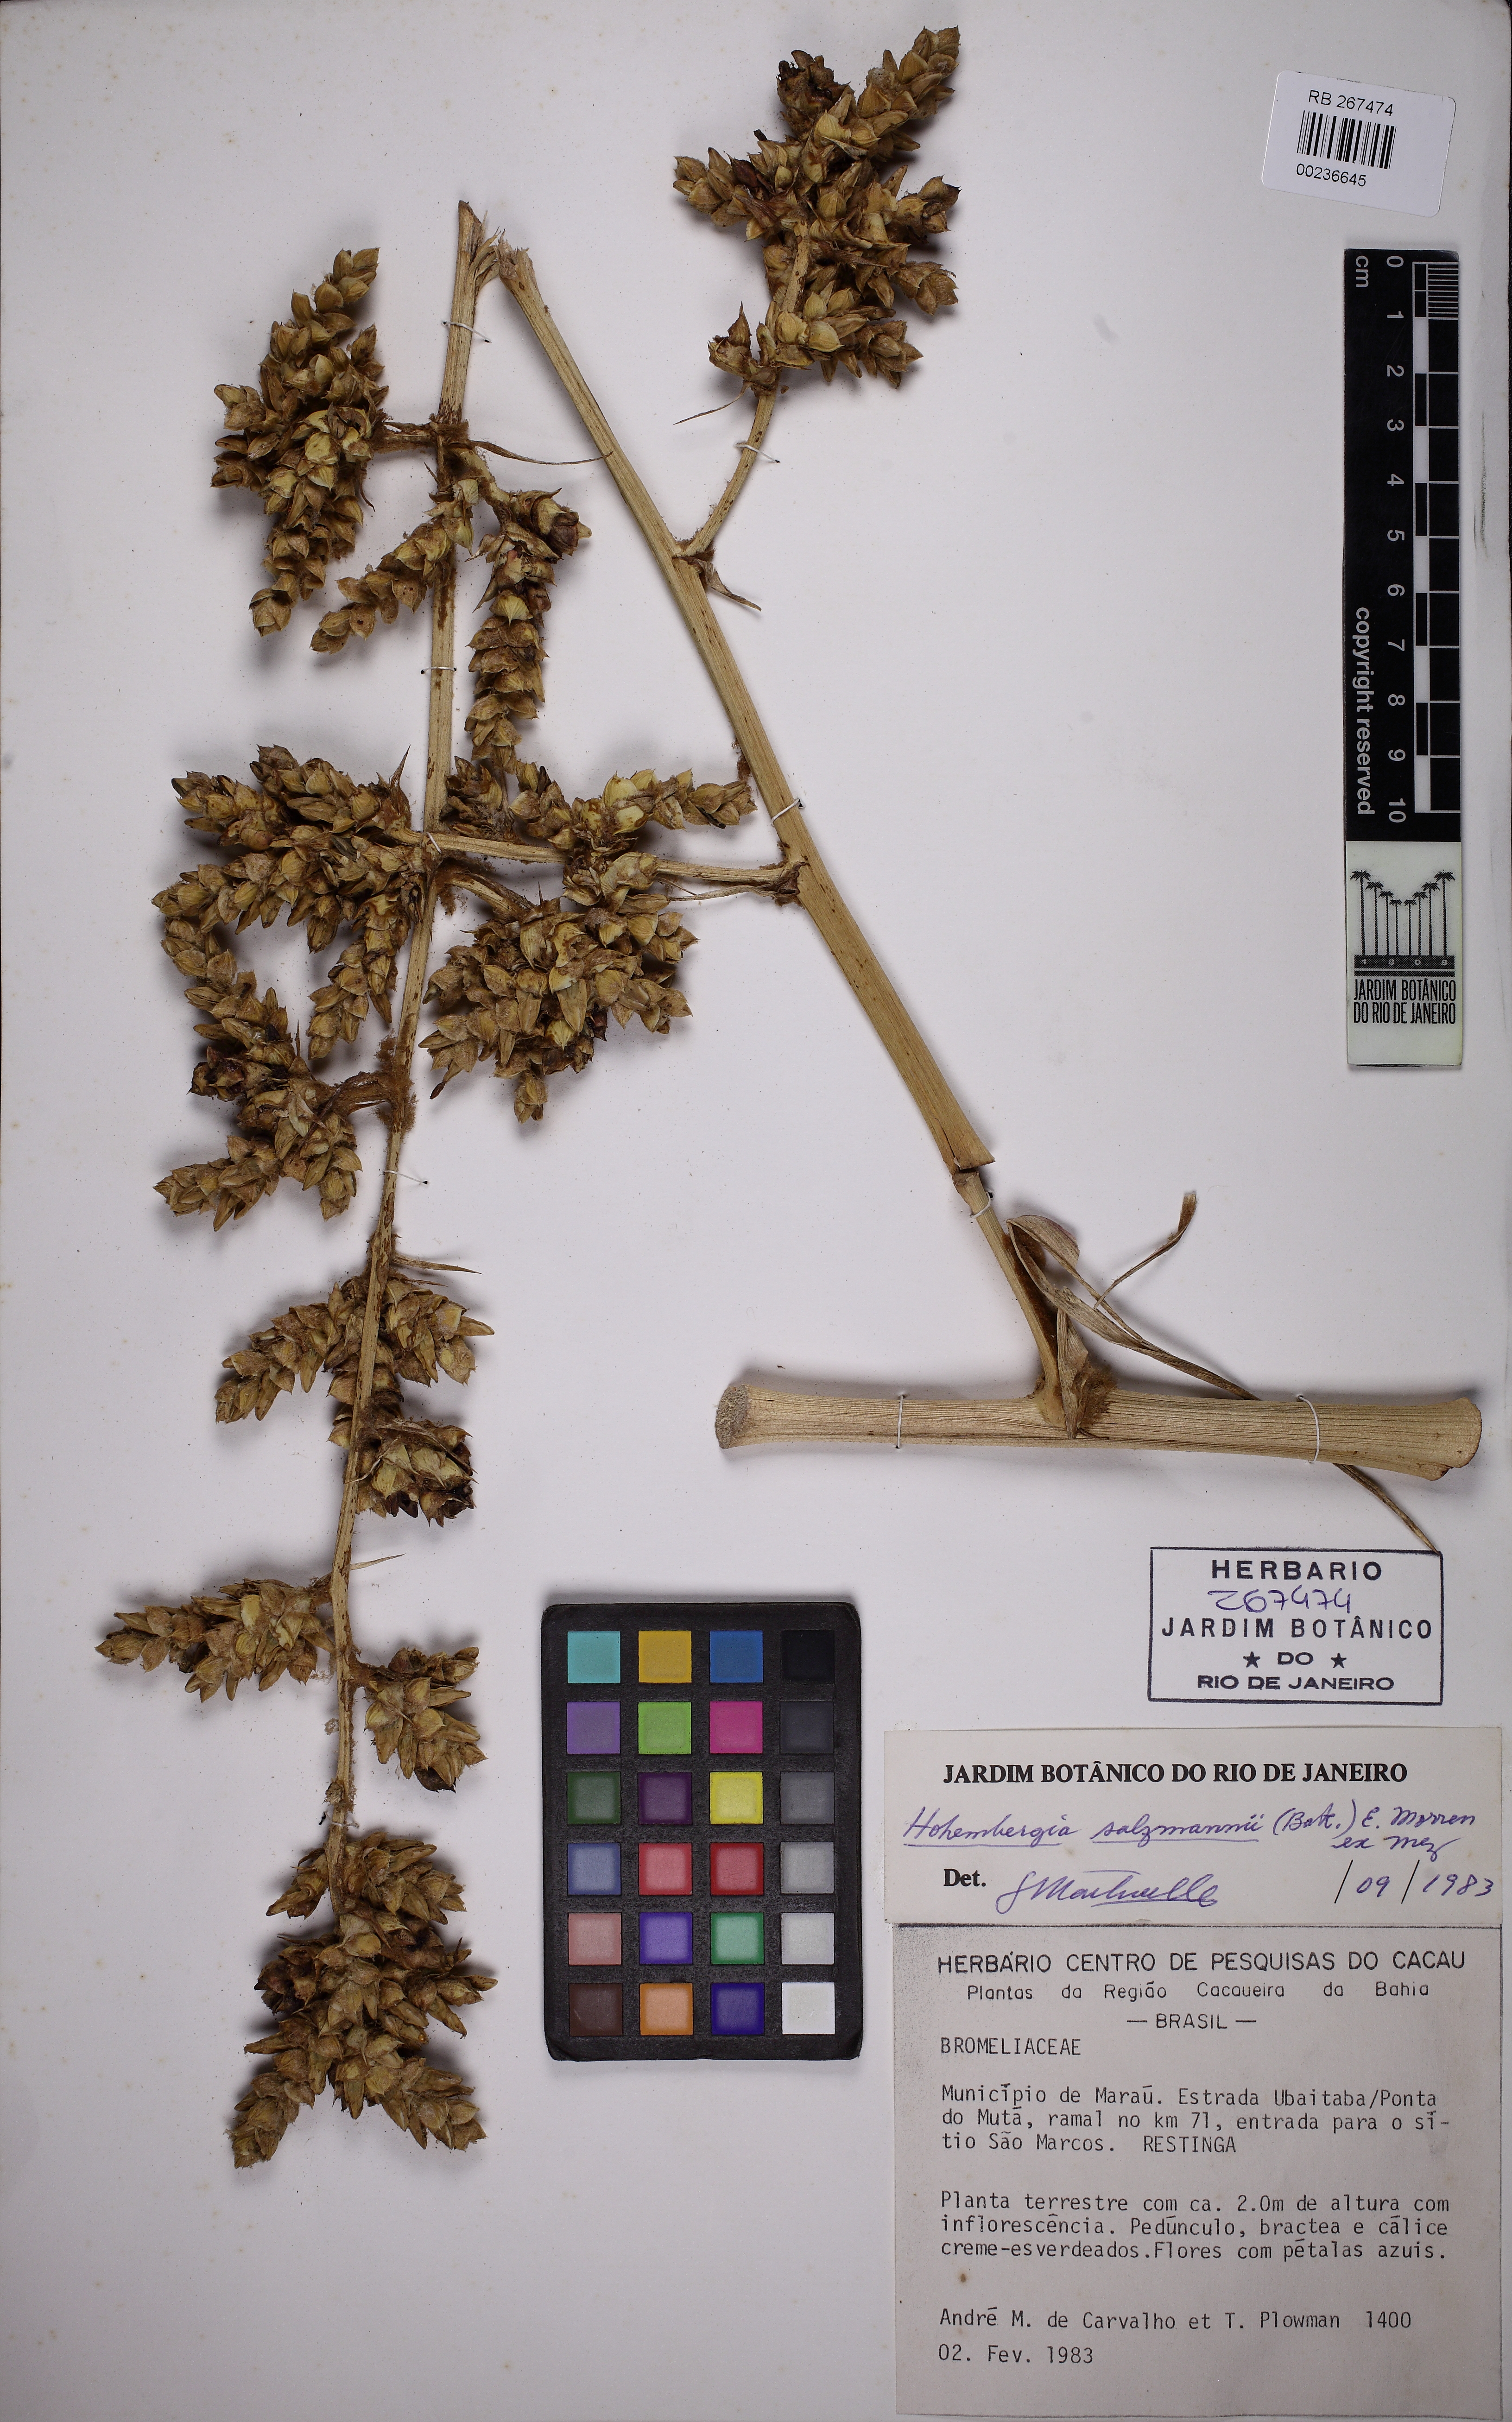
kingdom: Plantae
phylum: Tracheophyta
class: Liliopsida
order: Poales
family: Bromeliaceae
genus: Hohenbergia
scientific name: Hohenbergia salzmannii
